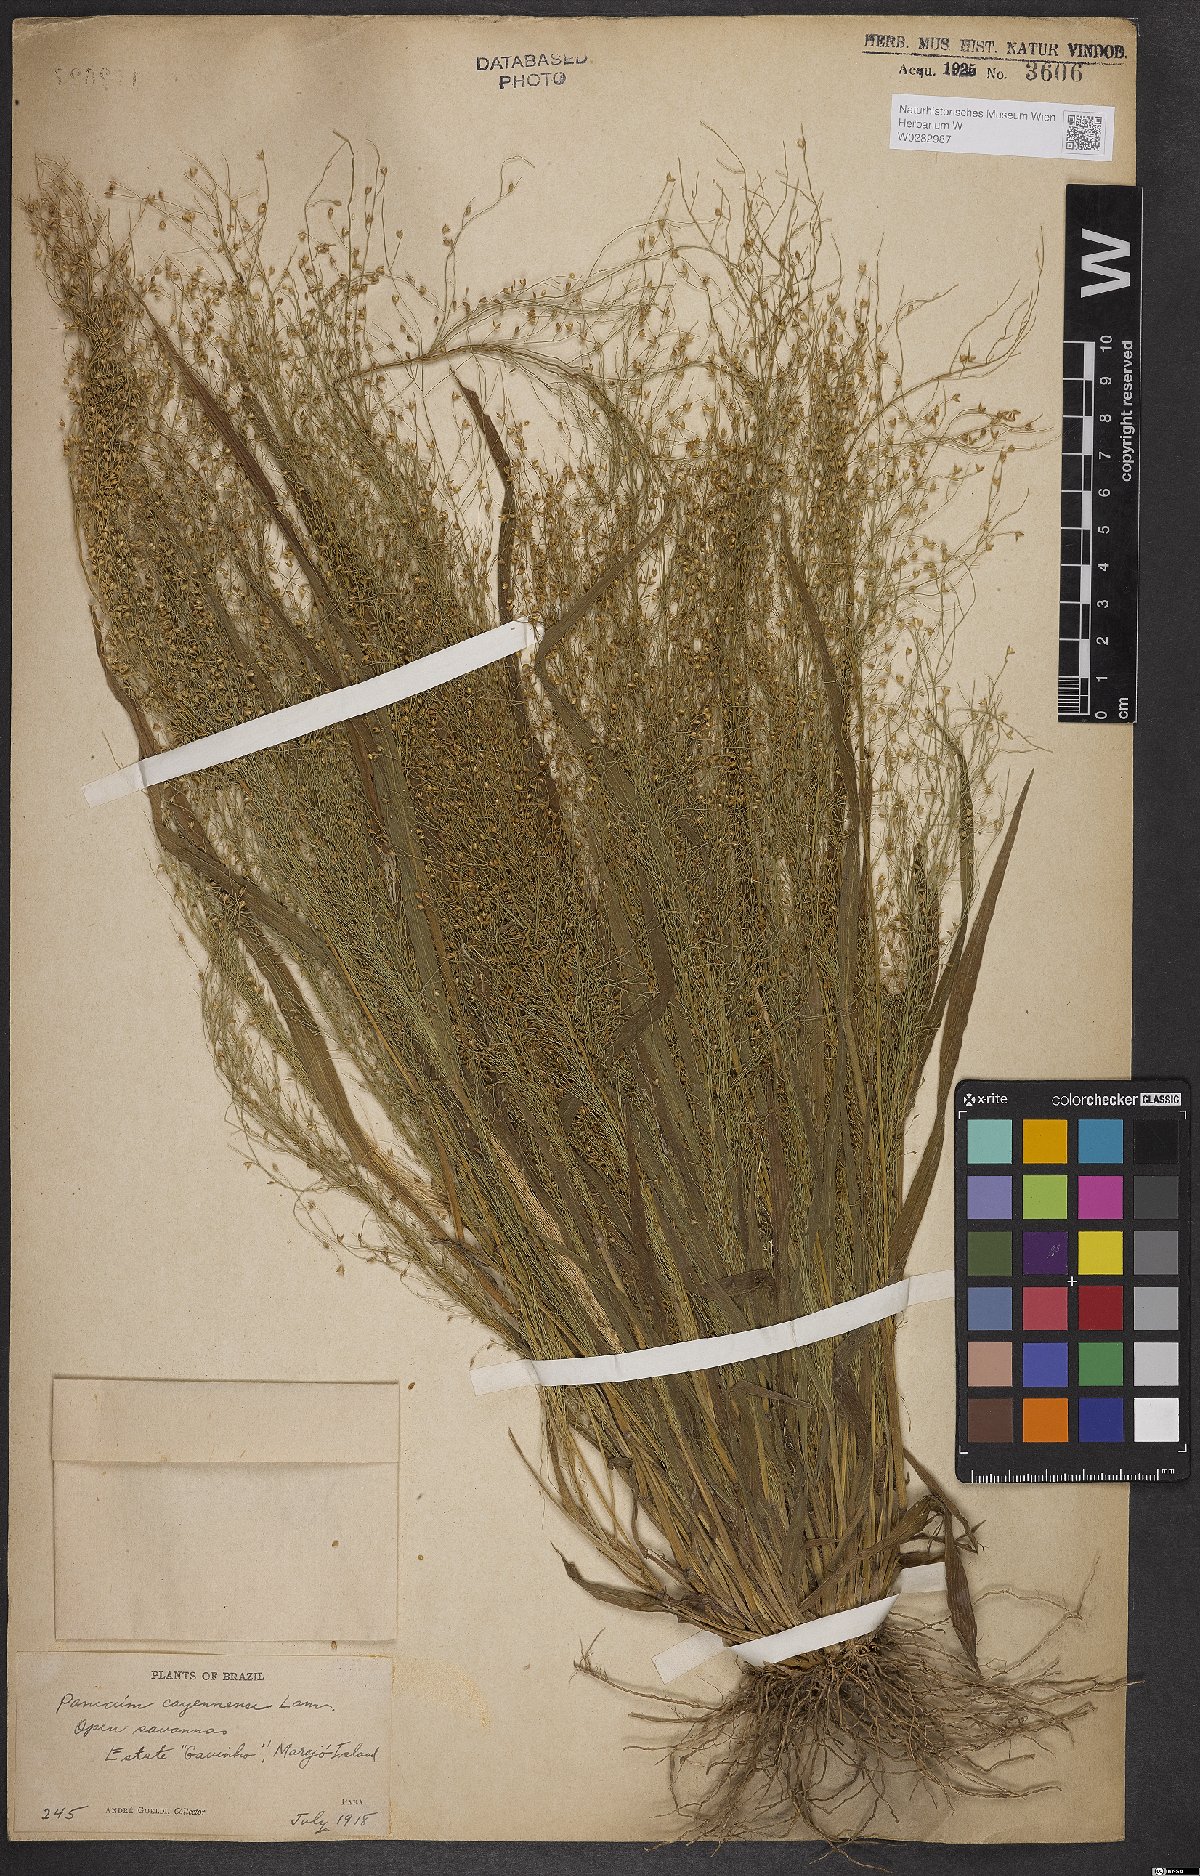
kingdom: Plantae
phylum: Tracheophyta
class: Liliopsida
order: Poales
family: Poaceae
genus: Panicum
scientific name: Panicum peladoense
